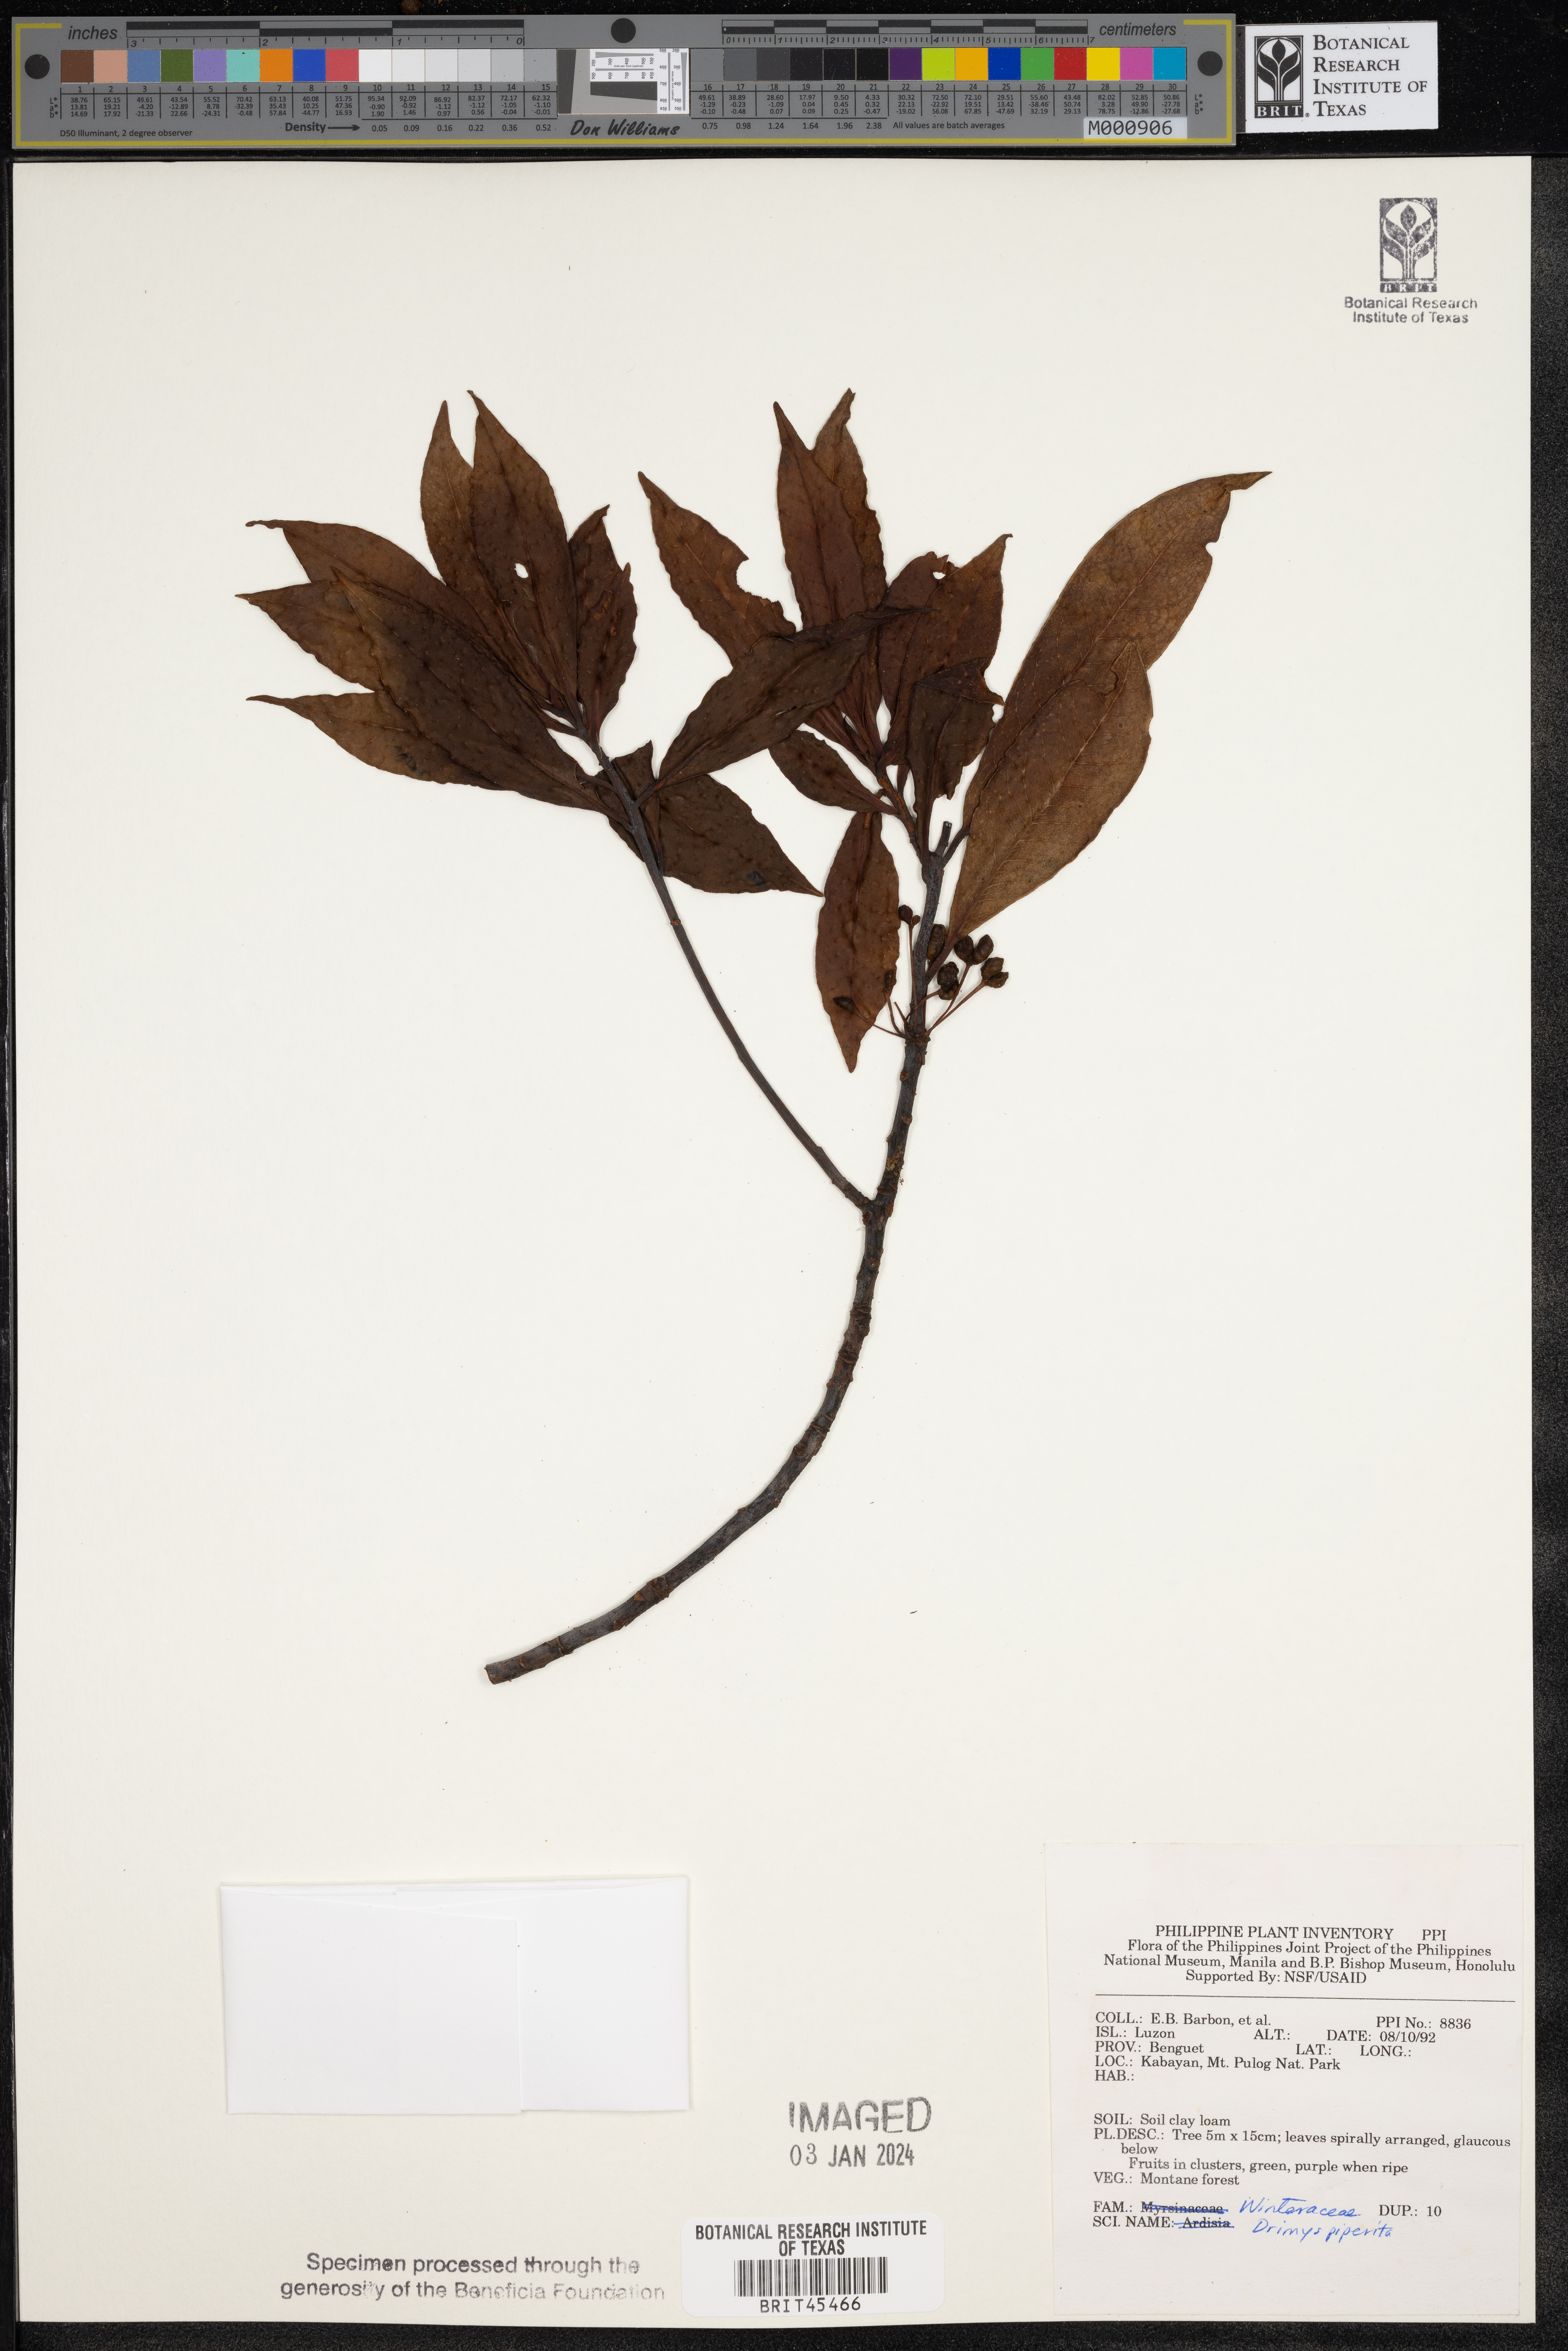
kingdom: Plantae
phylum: Tracheophyta
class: Magnoliopsida
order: Canellales
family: Winteraceae
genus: Drimys
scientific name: Drimys piperita
